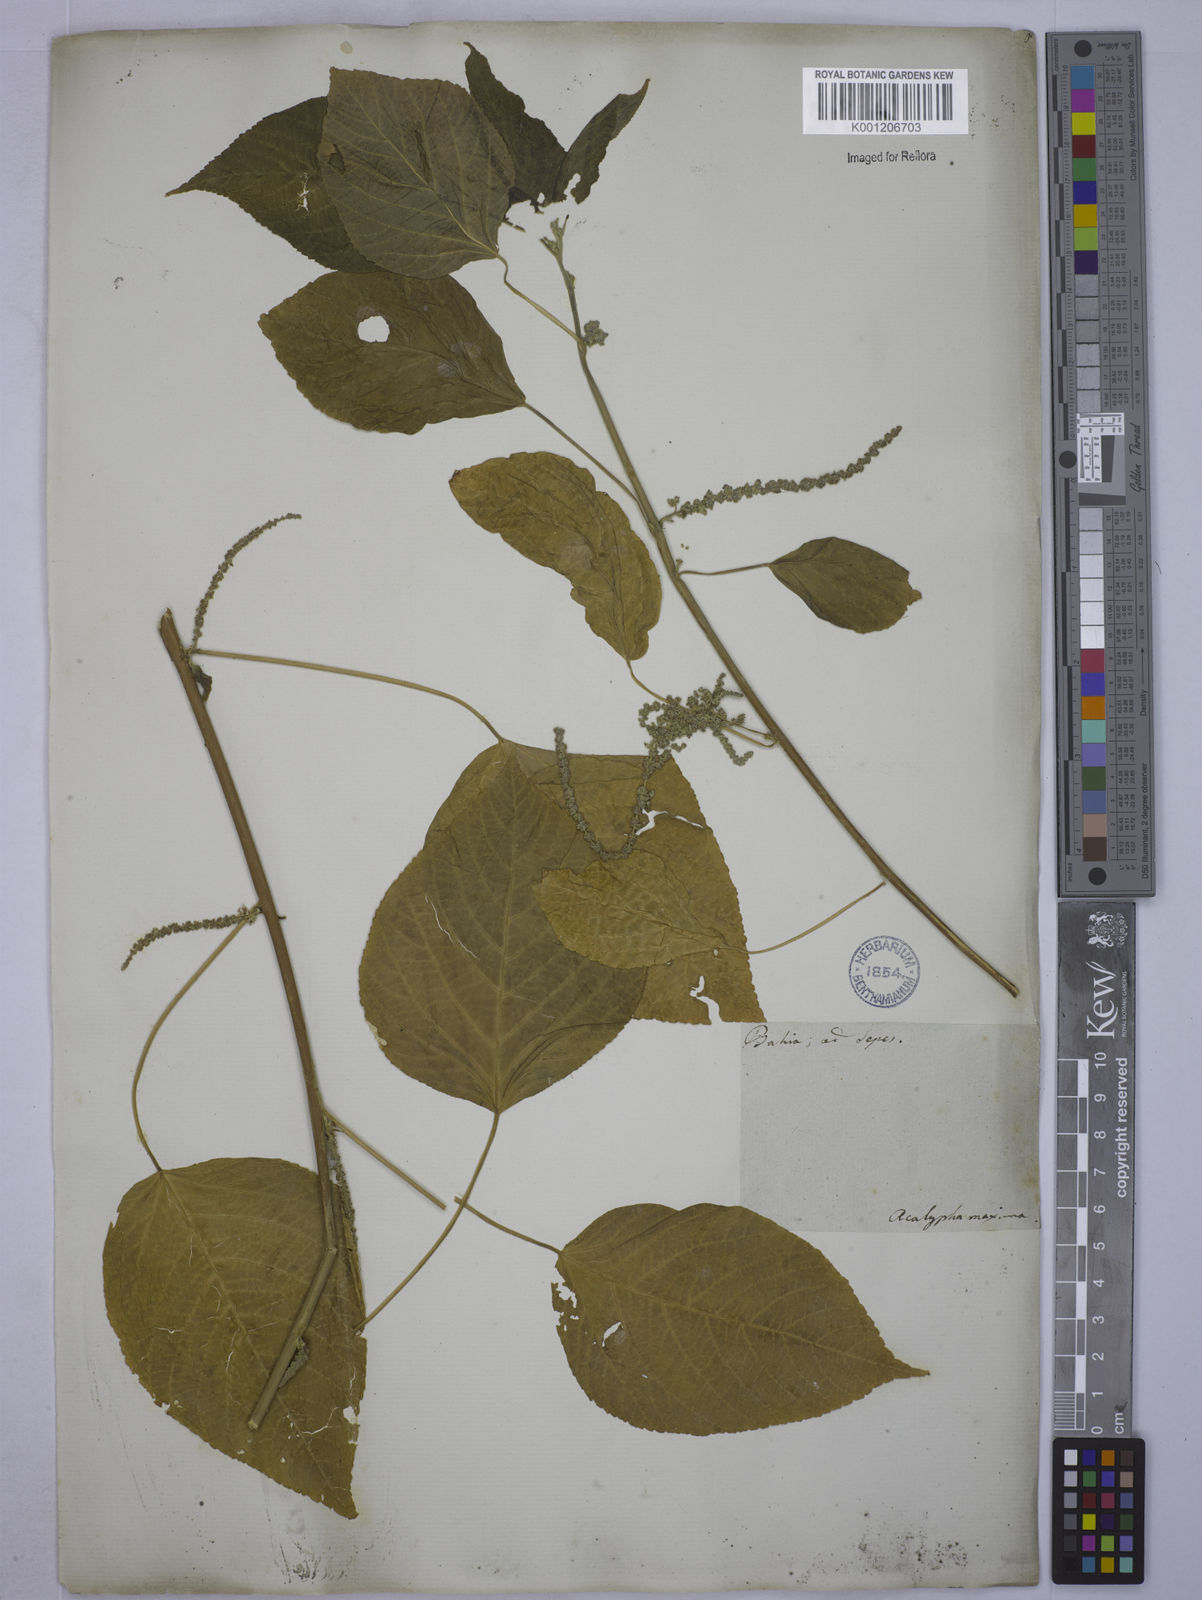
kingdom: Plantae
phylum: Tracheophyta
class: Magnoliopsida
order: Malpighiales
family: Euphorbiaceae
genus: Acalypha
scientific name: Acalypha
